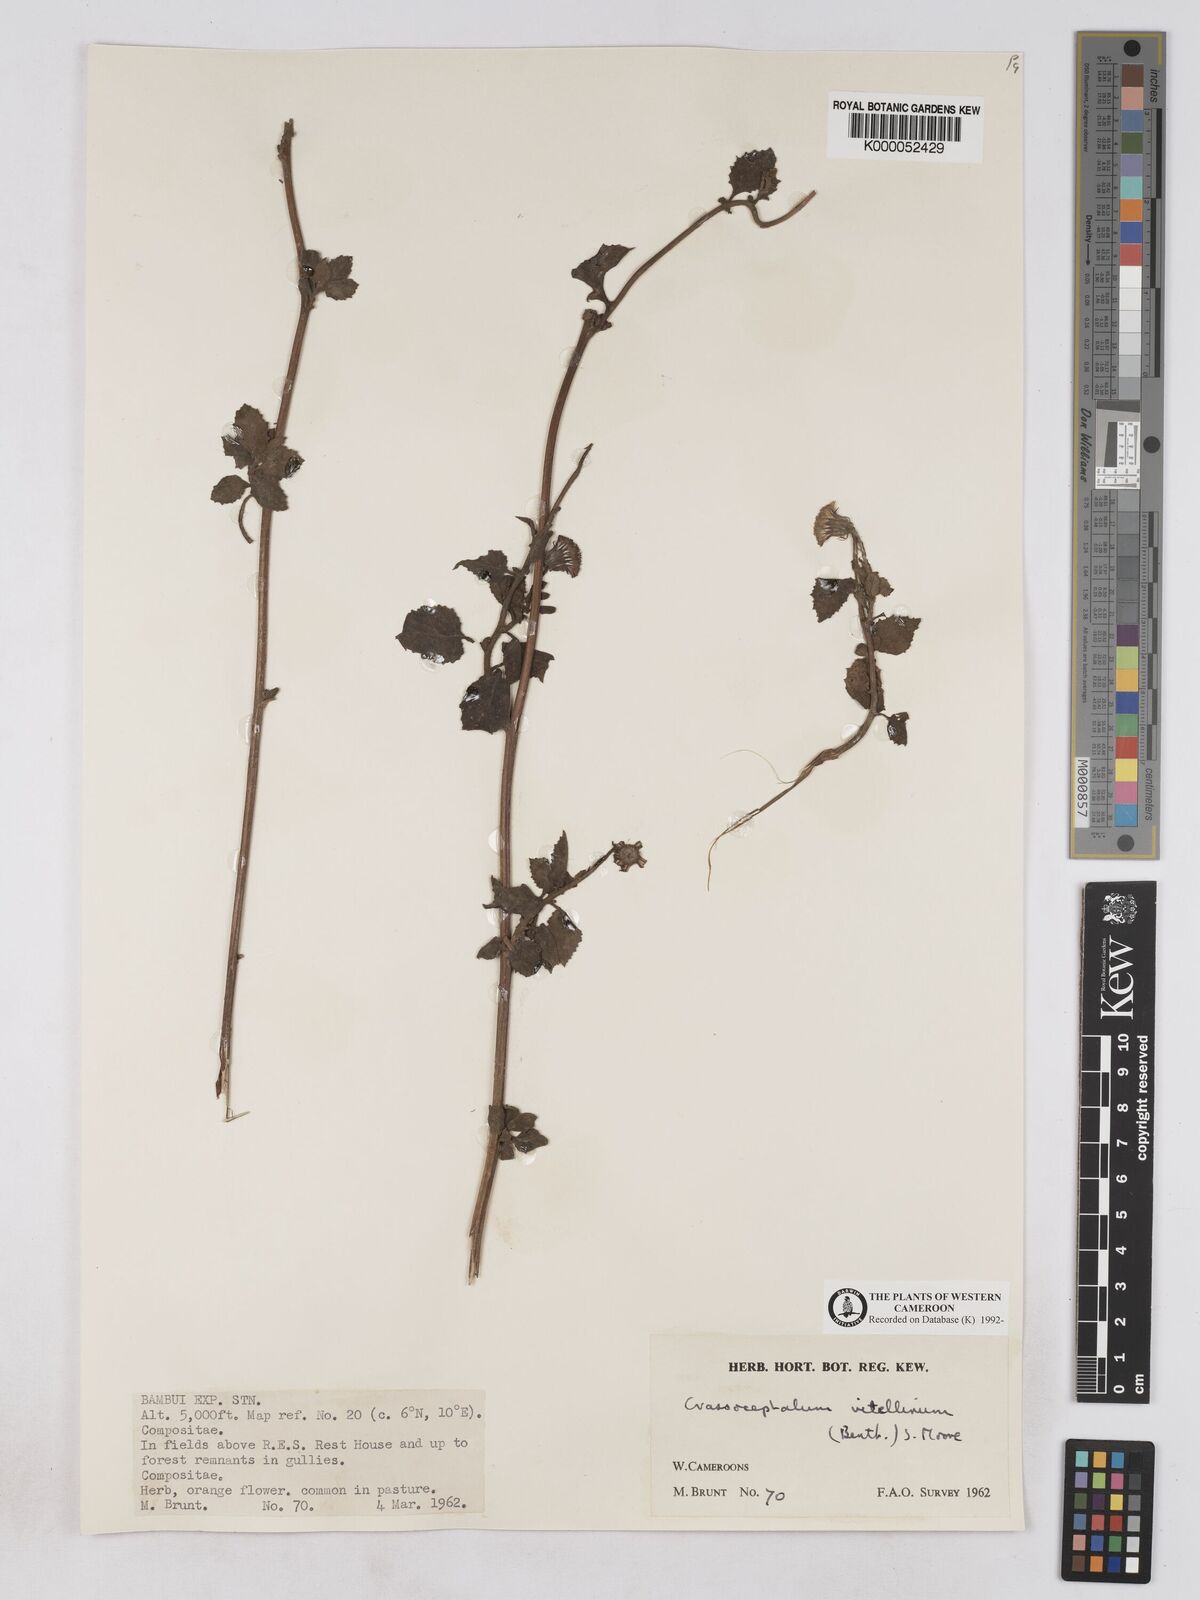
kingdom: Plantae
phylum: Tracheophyta
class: Magnoliopsida
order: Asterales
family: Asteraceae
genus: Crassocephalum
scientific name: Crassocephalum vitellinum
